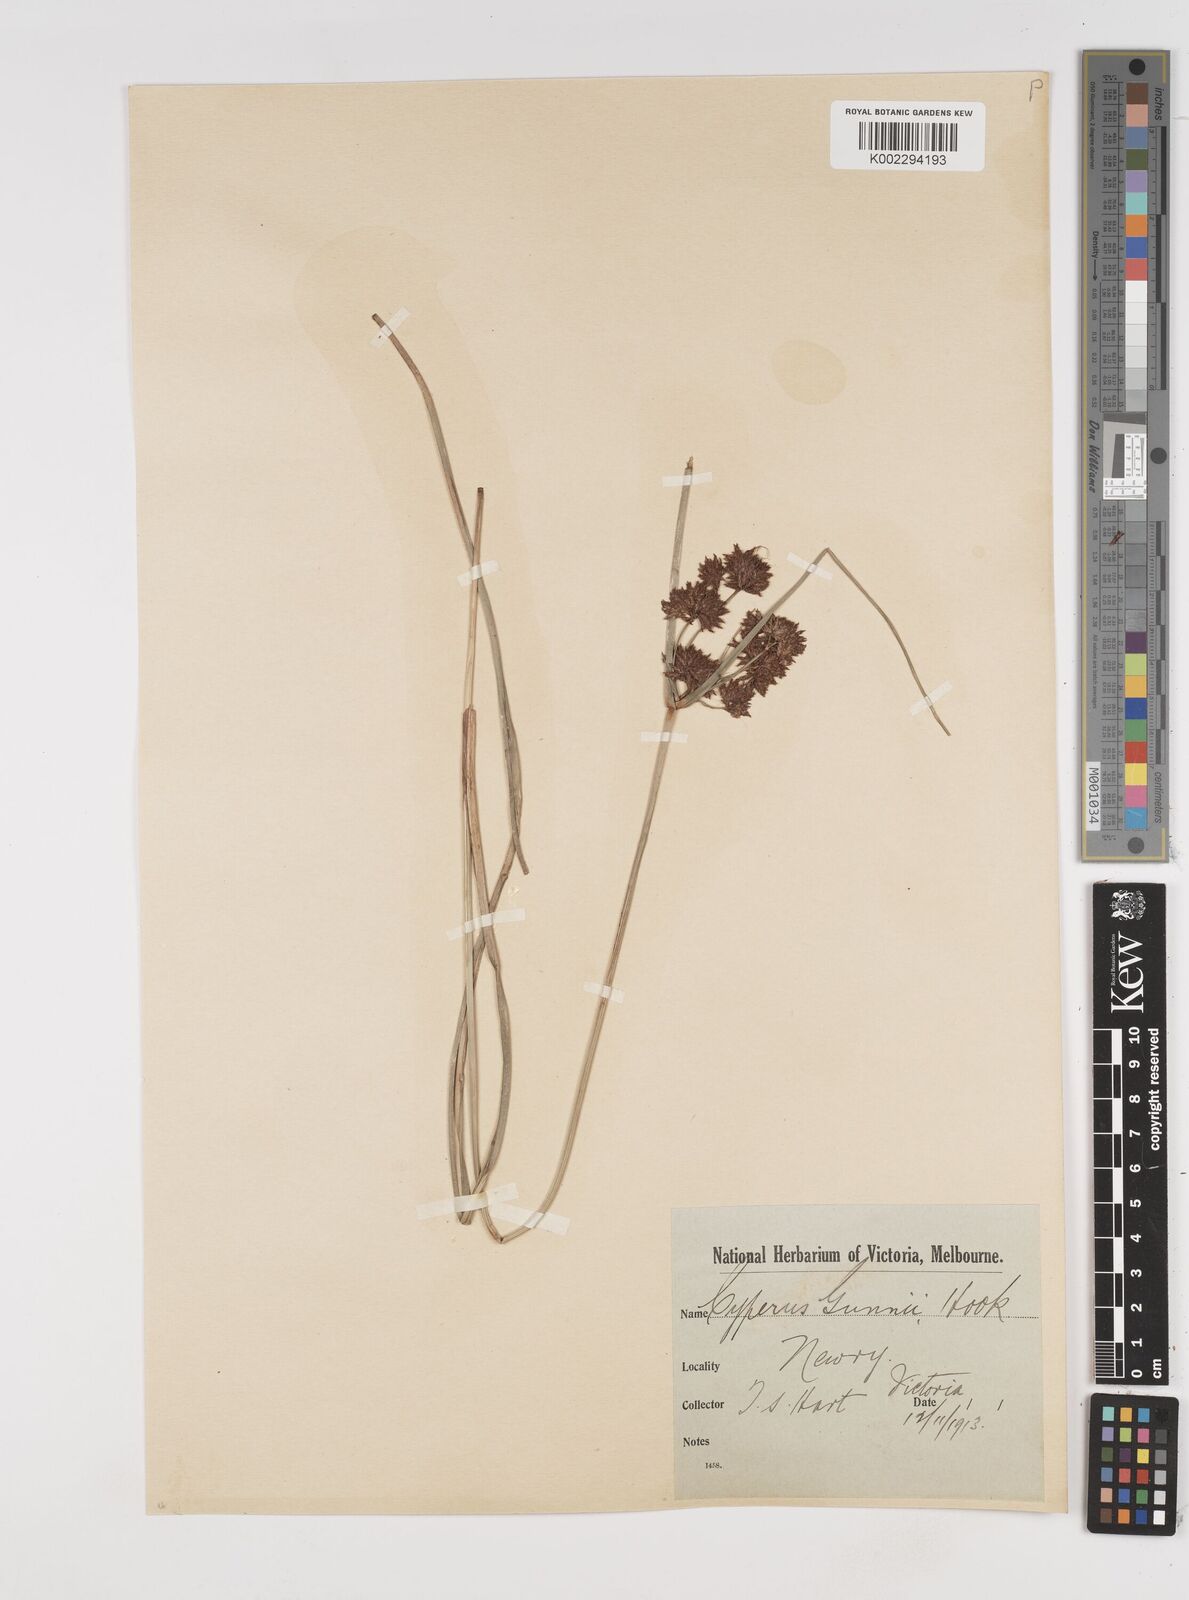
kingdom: Plantae
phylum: Tracheophyta
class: Liliopsida
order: Poales
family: Cyperaceae
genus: Cyperus
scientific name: Cyperus gunnii
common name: Flecked flat-sedge
